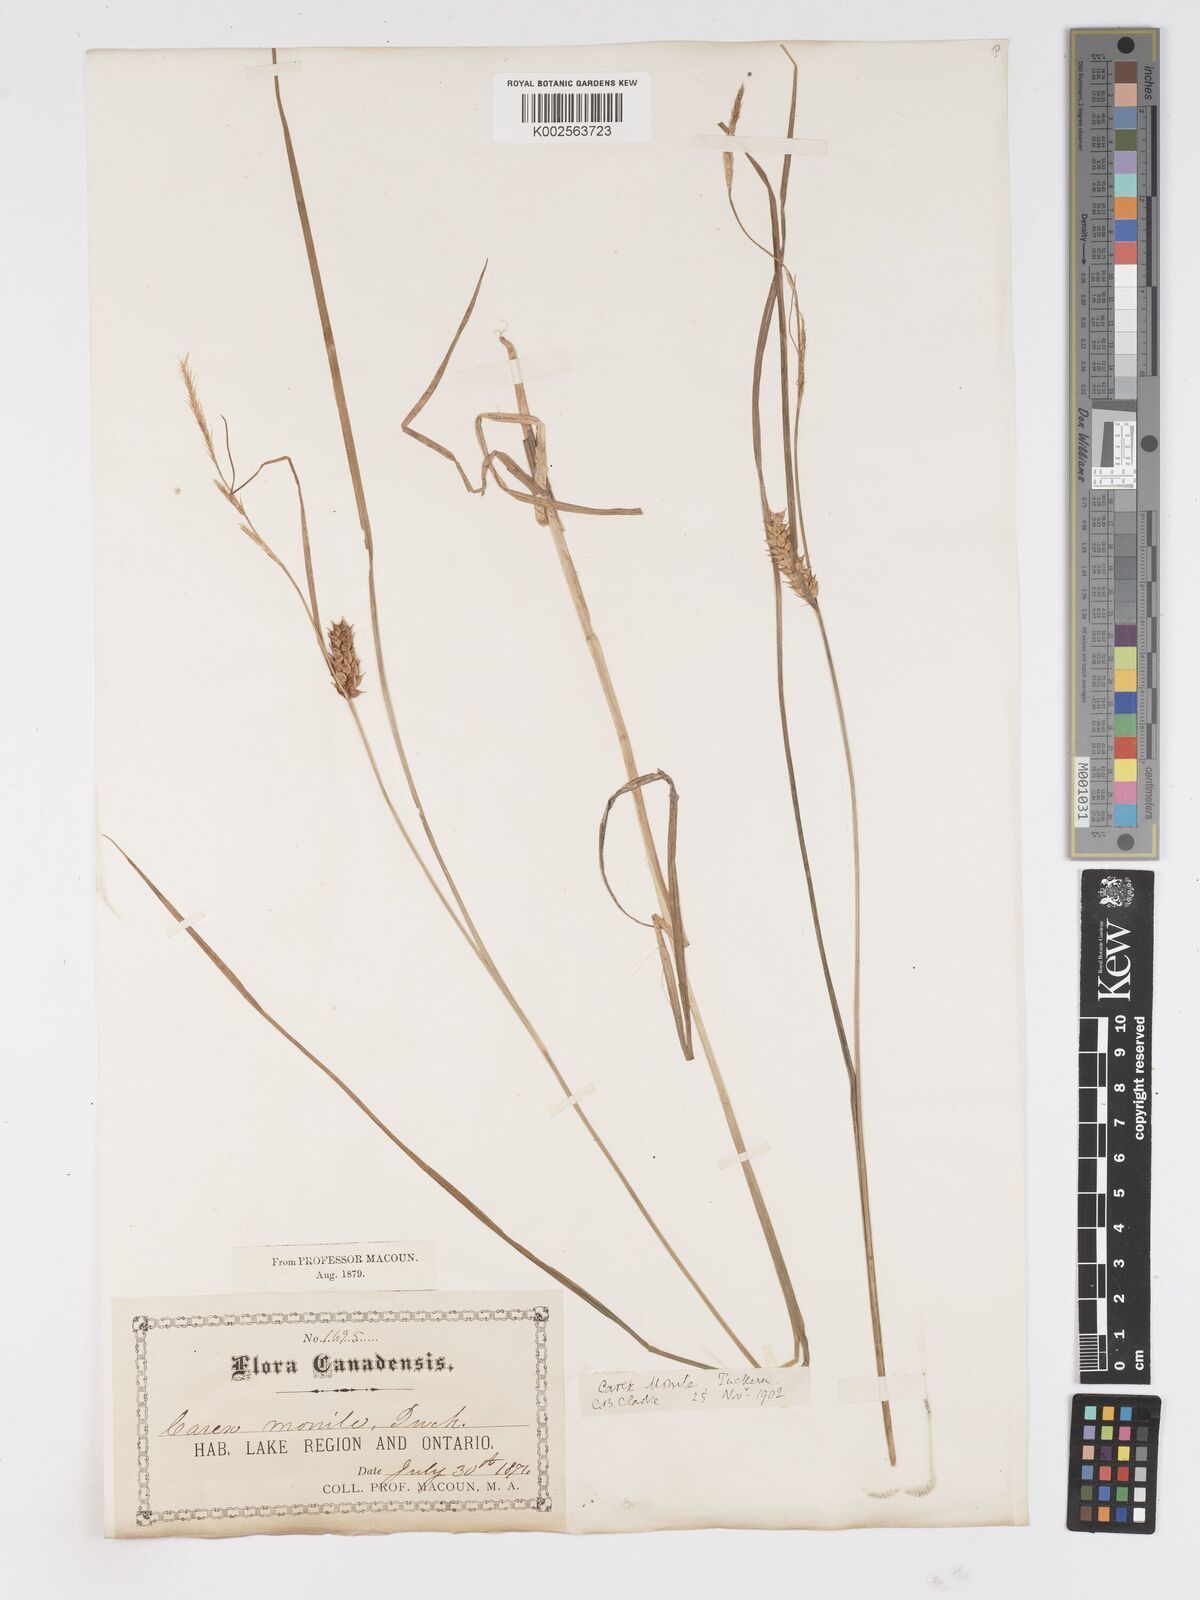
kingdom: Plantae
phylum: Tracheophyta
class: Liliopsida
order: Poales
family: Cyperaceae
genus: Carex
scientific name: Carex vesicaria
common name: Bladder-sedge
